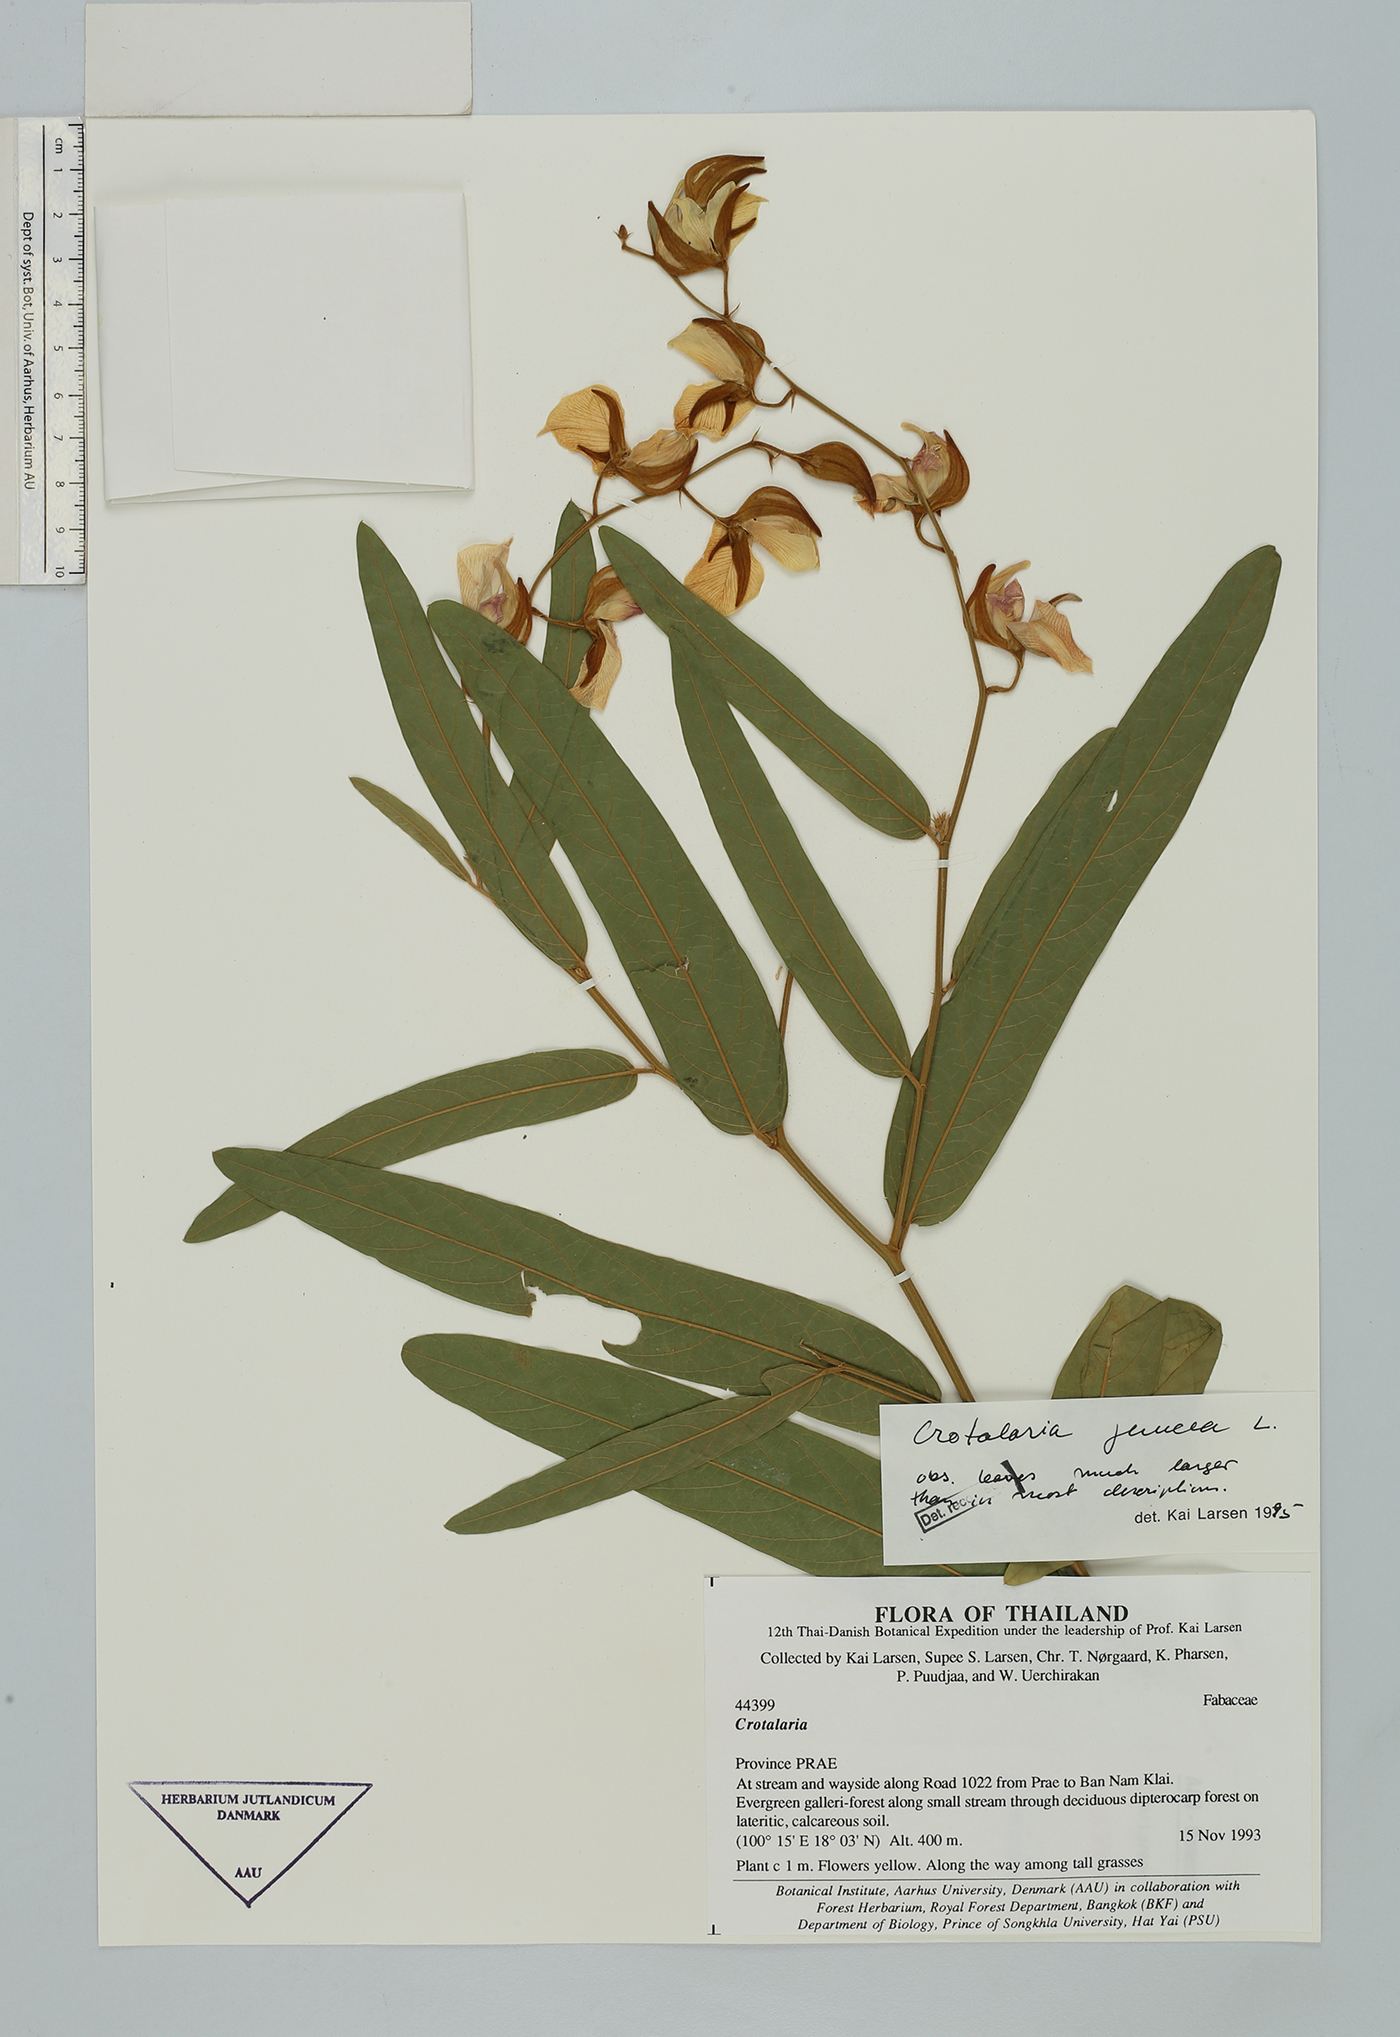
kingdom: Plantae
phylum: Tracheophyta
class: Magnoliopsida
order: Fabales
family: Fabaceae
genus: Crotalaria
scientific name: Crotalaria tetragona
